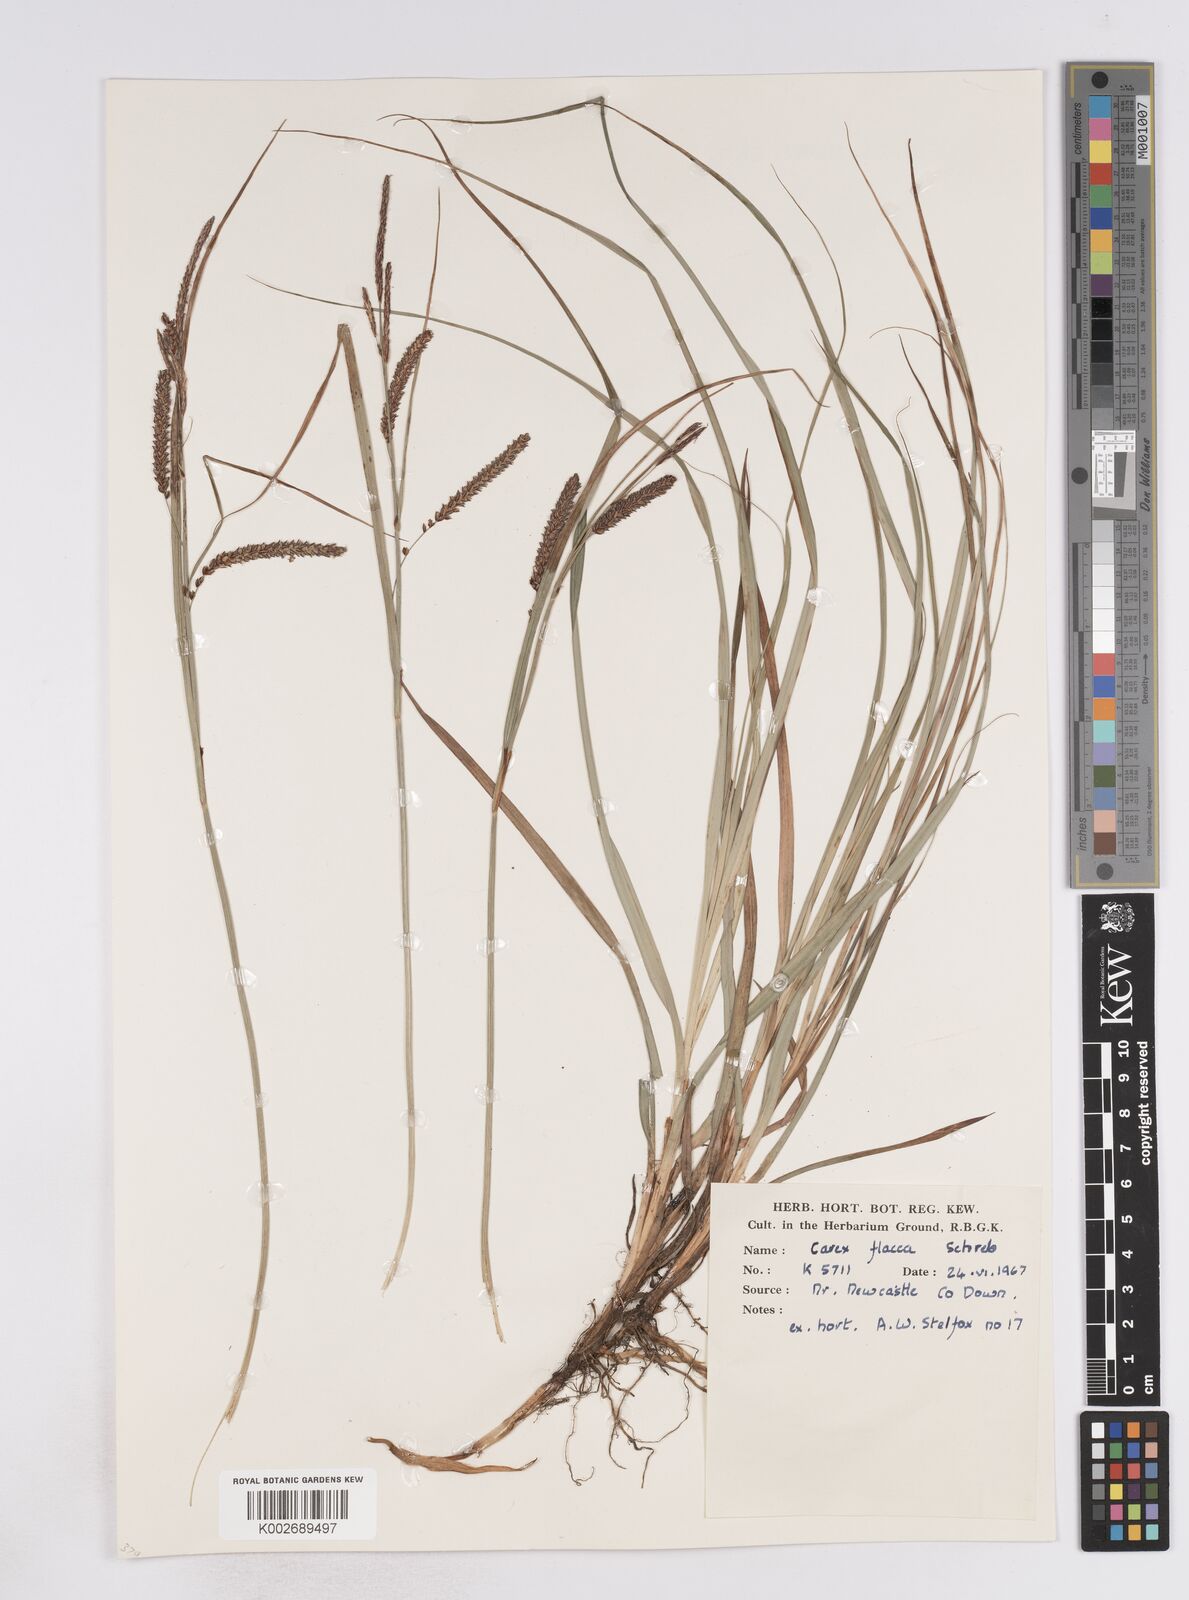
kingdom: Plantae
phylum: Tracheophyta
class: Liliopsida
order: Poales
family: Cyperaceae
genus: Carex
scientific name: Carex flacca
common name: Glaucous sedge
